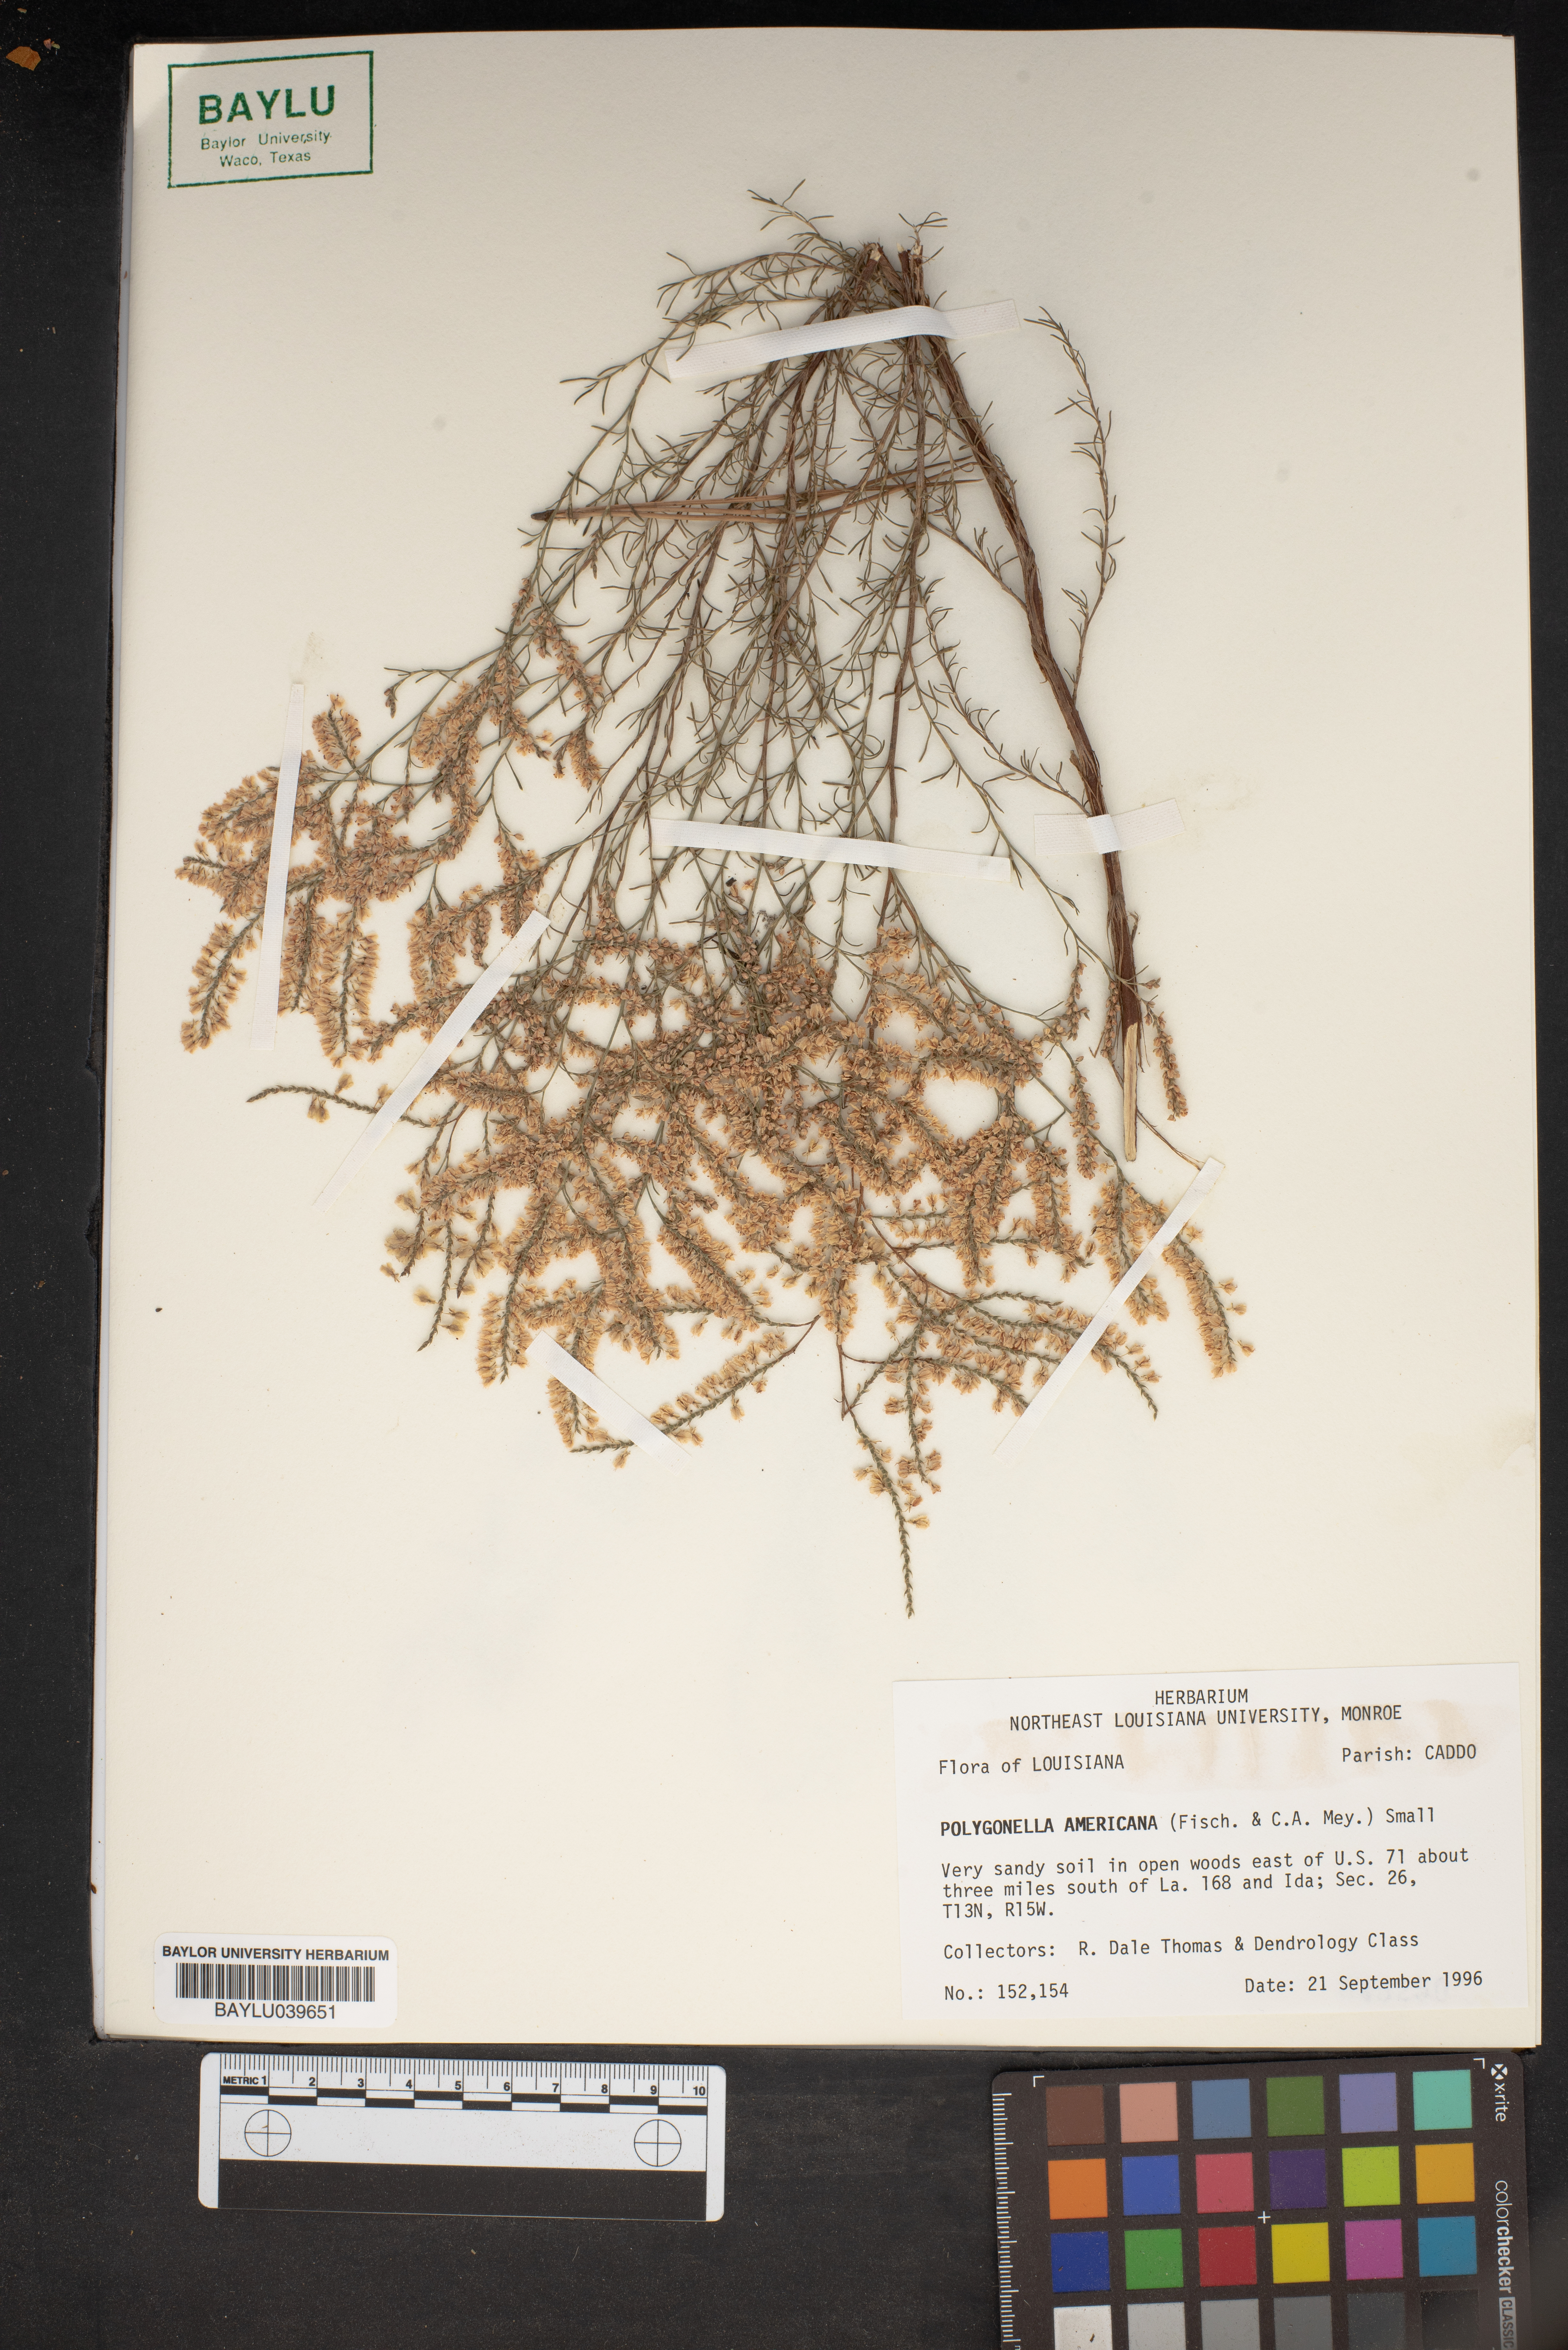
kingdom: Plantae
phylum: Tracheophyta
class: Magnoliopsida
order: Caryophyllales
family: Polygonaceae
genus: Polygonella
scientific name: Polygonella americana
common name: Southern jointweed
